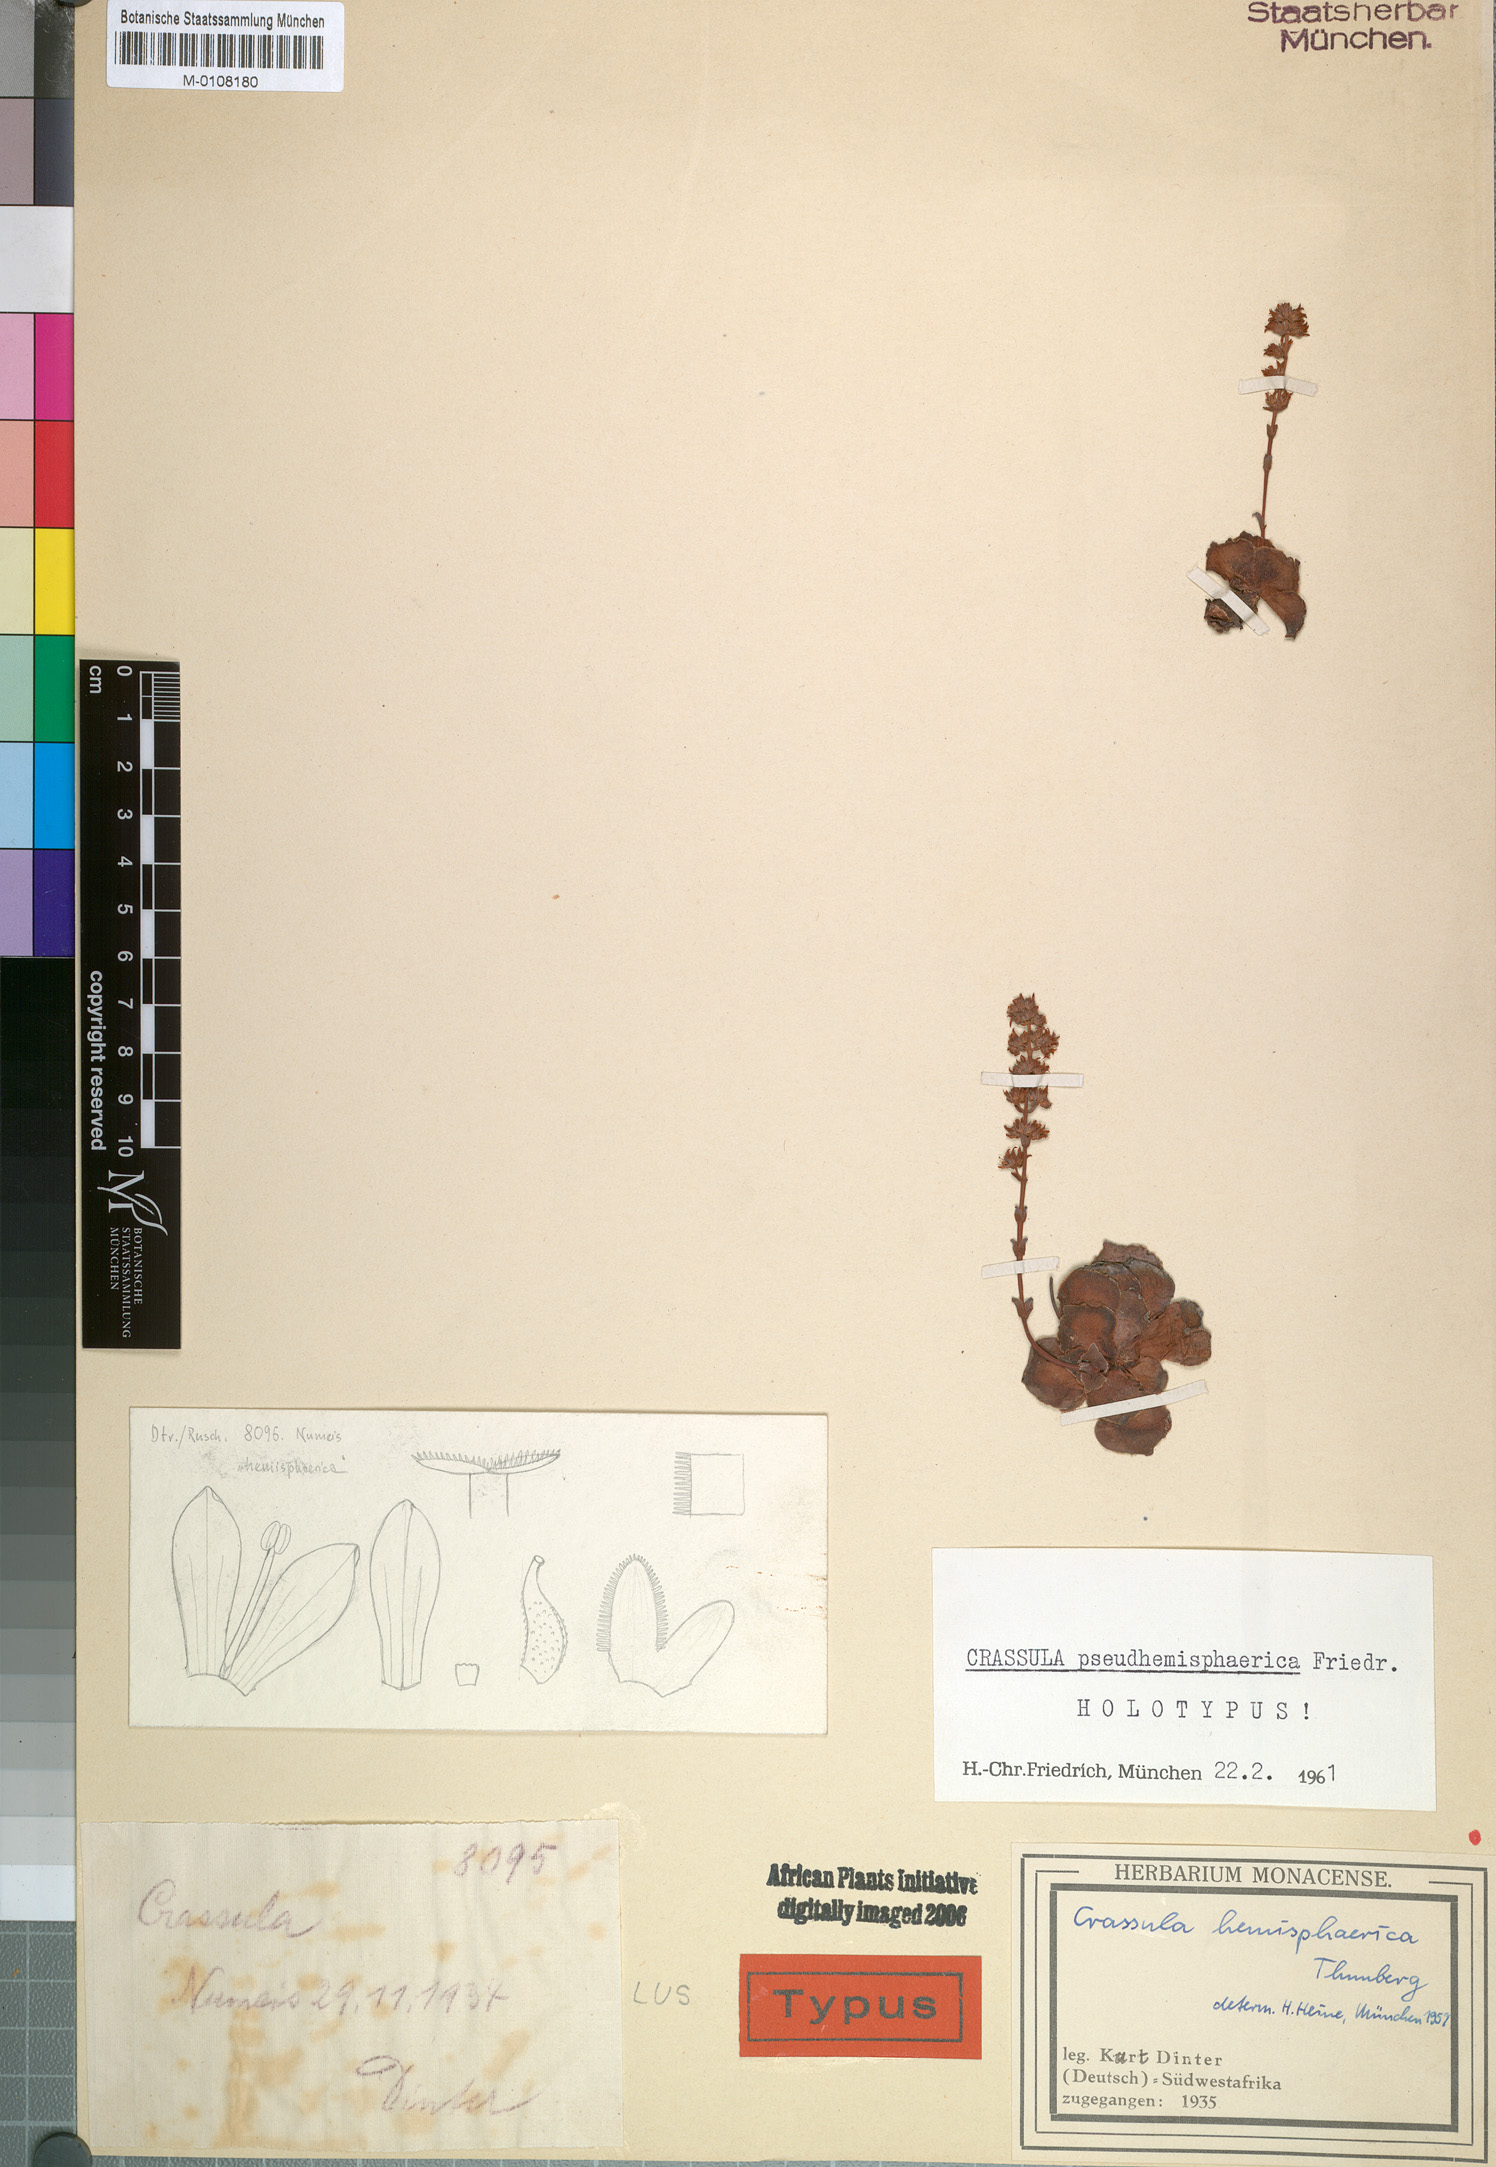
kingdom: Plantae
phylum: Tracheophyta
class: Magnoliopsida
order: Saxifragales
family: Crassulaceae
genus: Crassula
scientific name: Crassula pseudhemisphaerica
